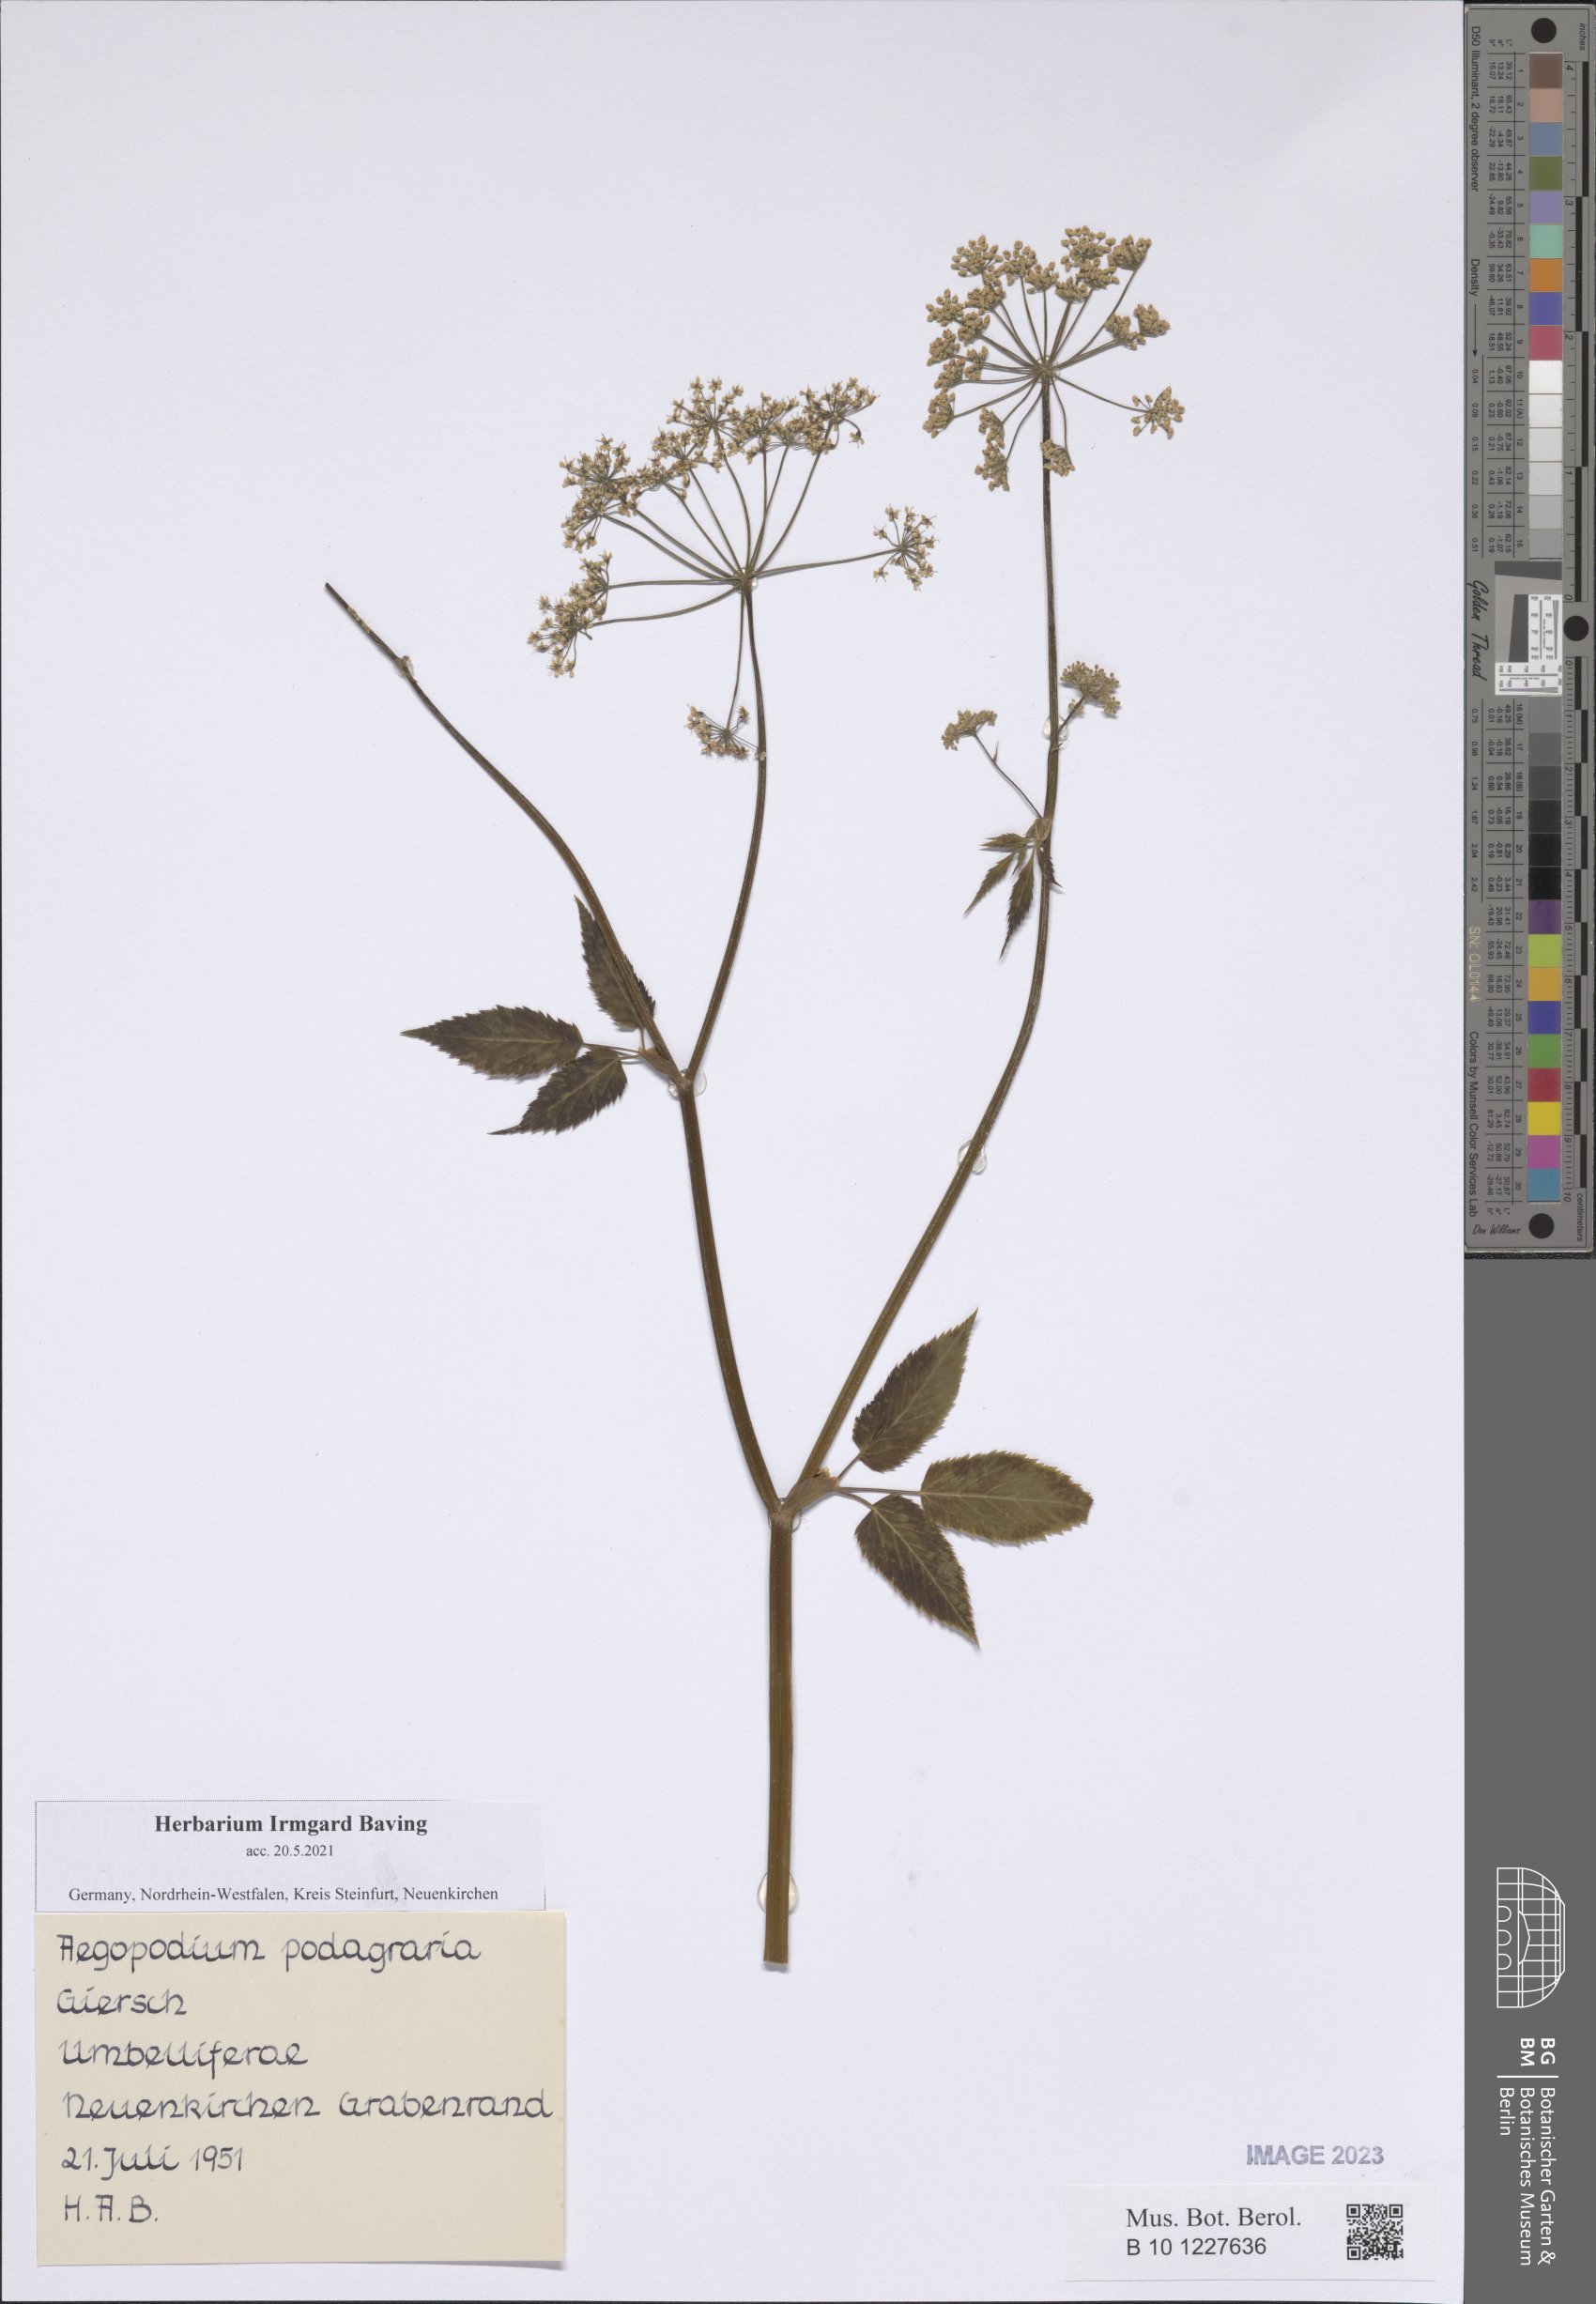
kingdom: Plantae
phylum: Tracheophyta
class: Magnoliopsida
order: Apiales
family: Apiaceae
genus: Aegopodium
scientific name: Aegopodium podagraria
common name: Ground-elder
